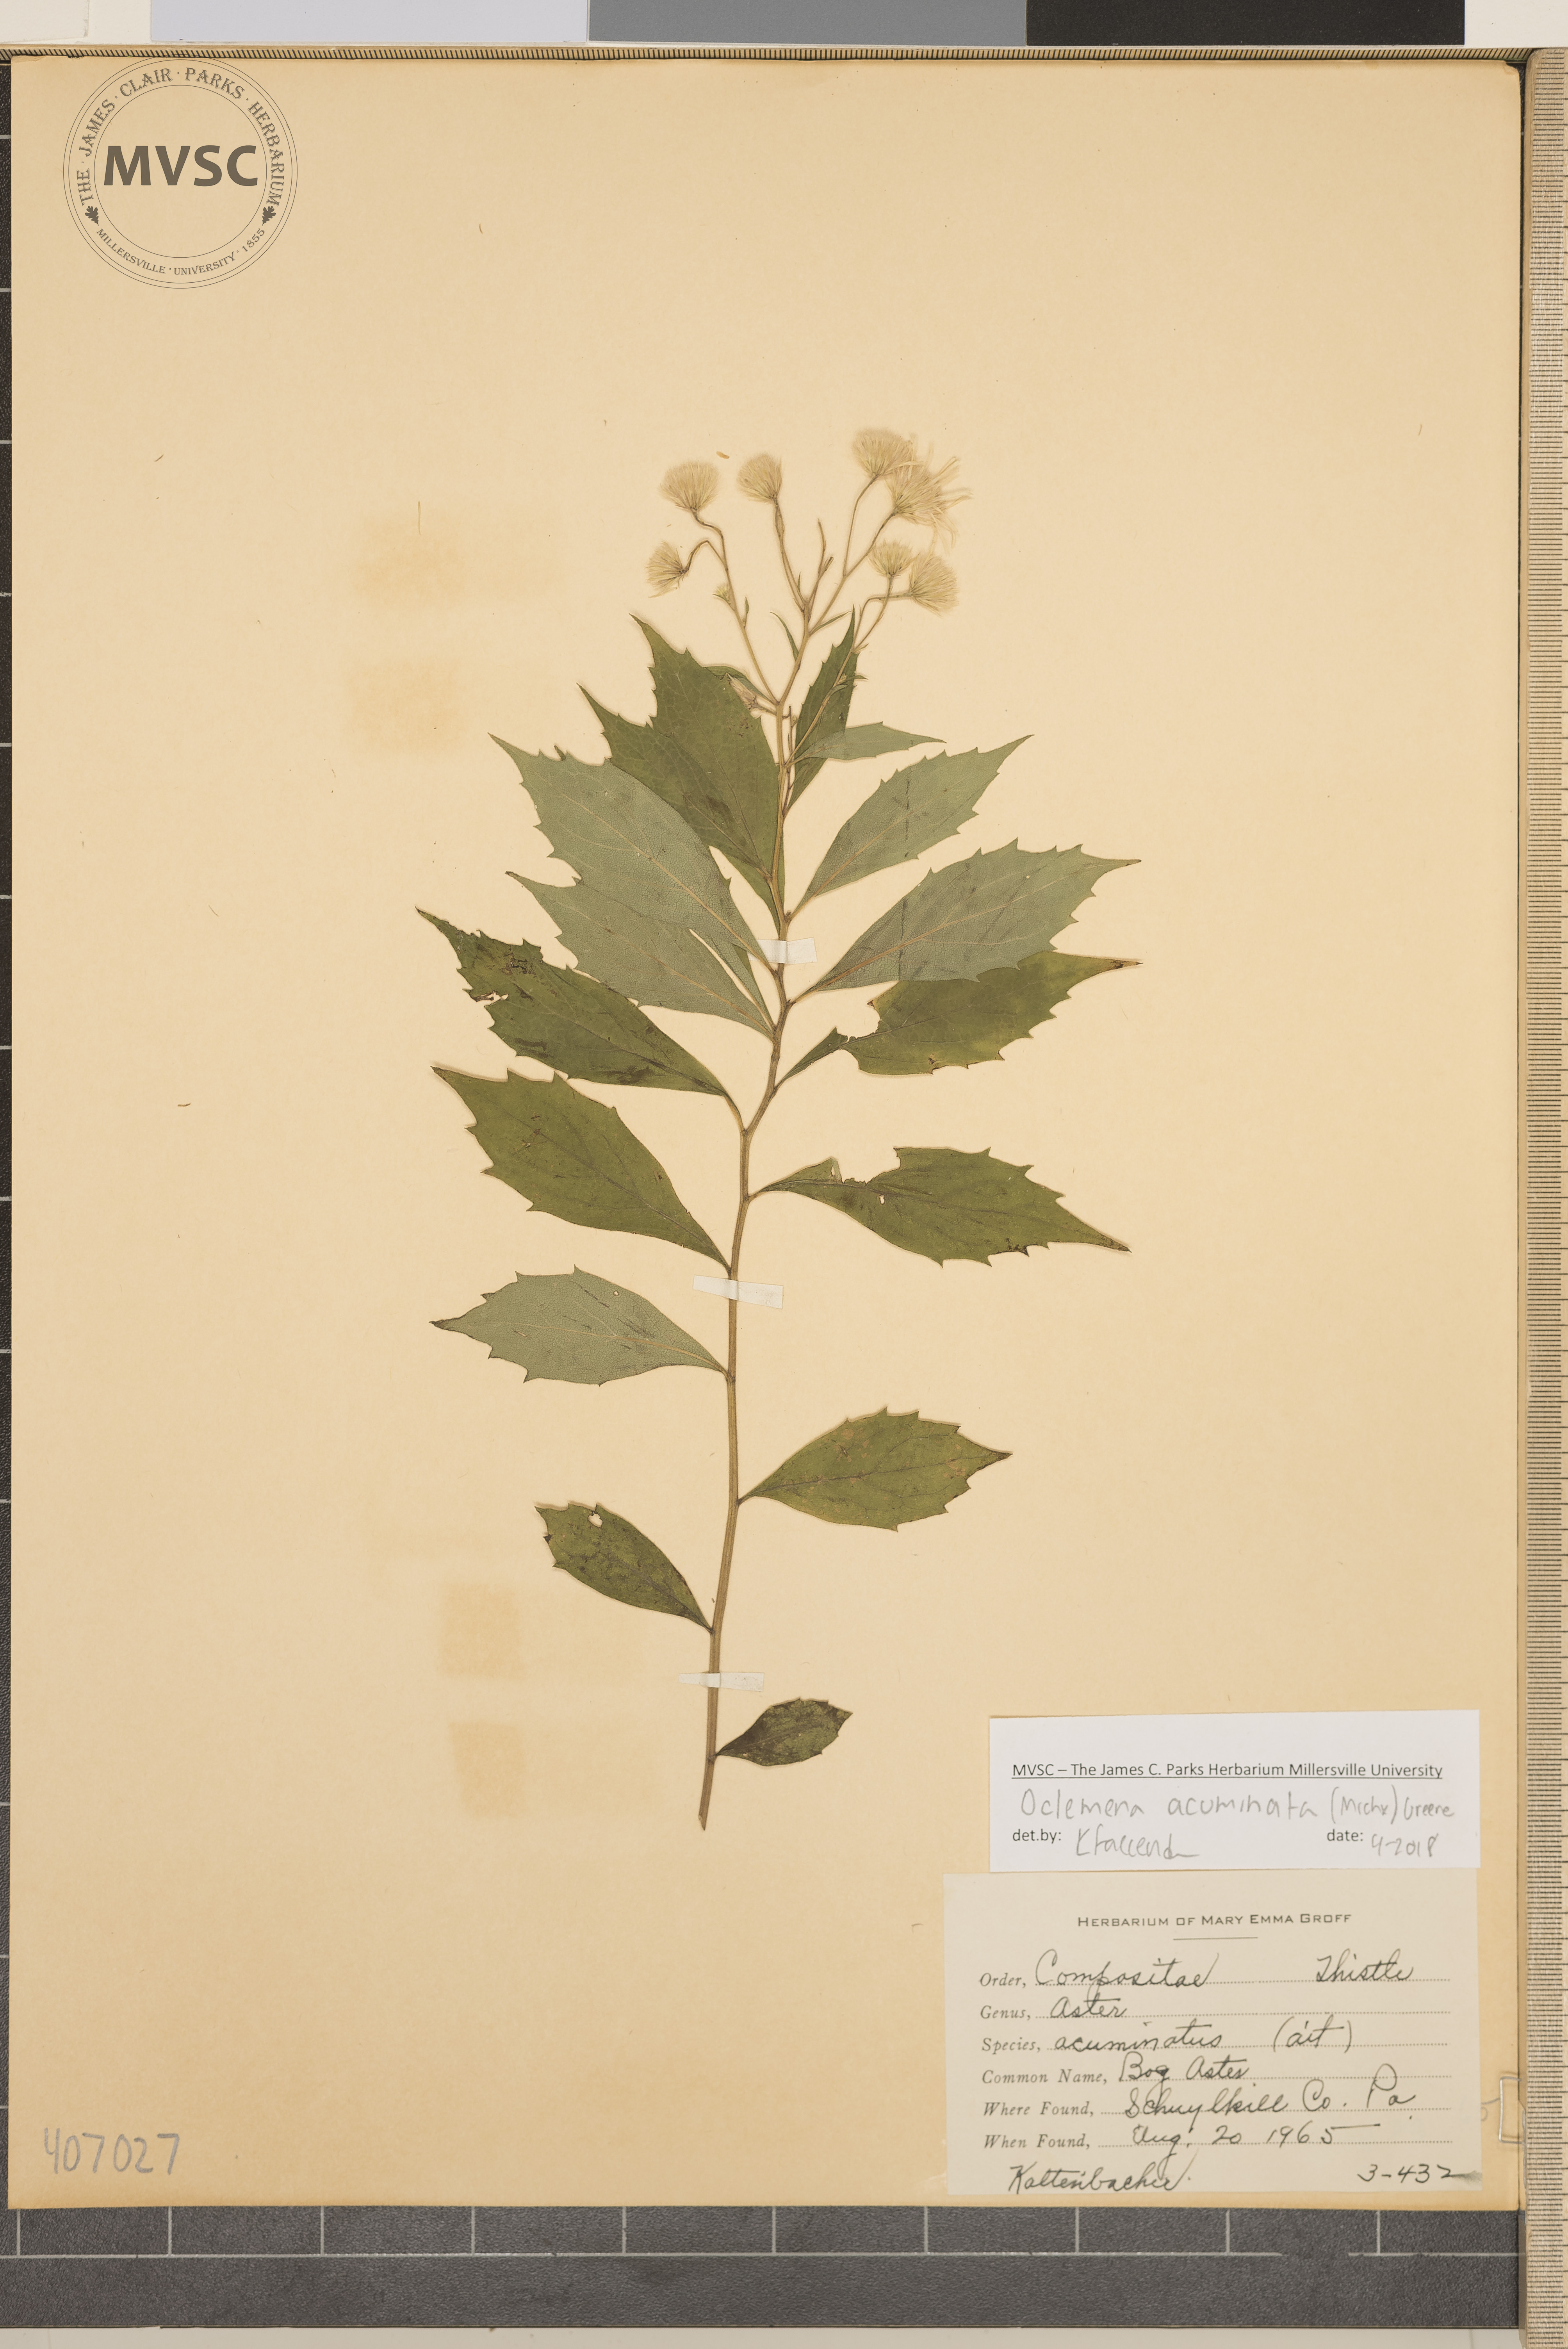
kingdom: Plantae
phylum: Tracheophyta
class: Magnoliopsida
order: Asterales
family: Asteraceae
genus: Oclemena
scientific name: Oclemena acuminata
